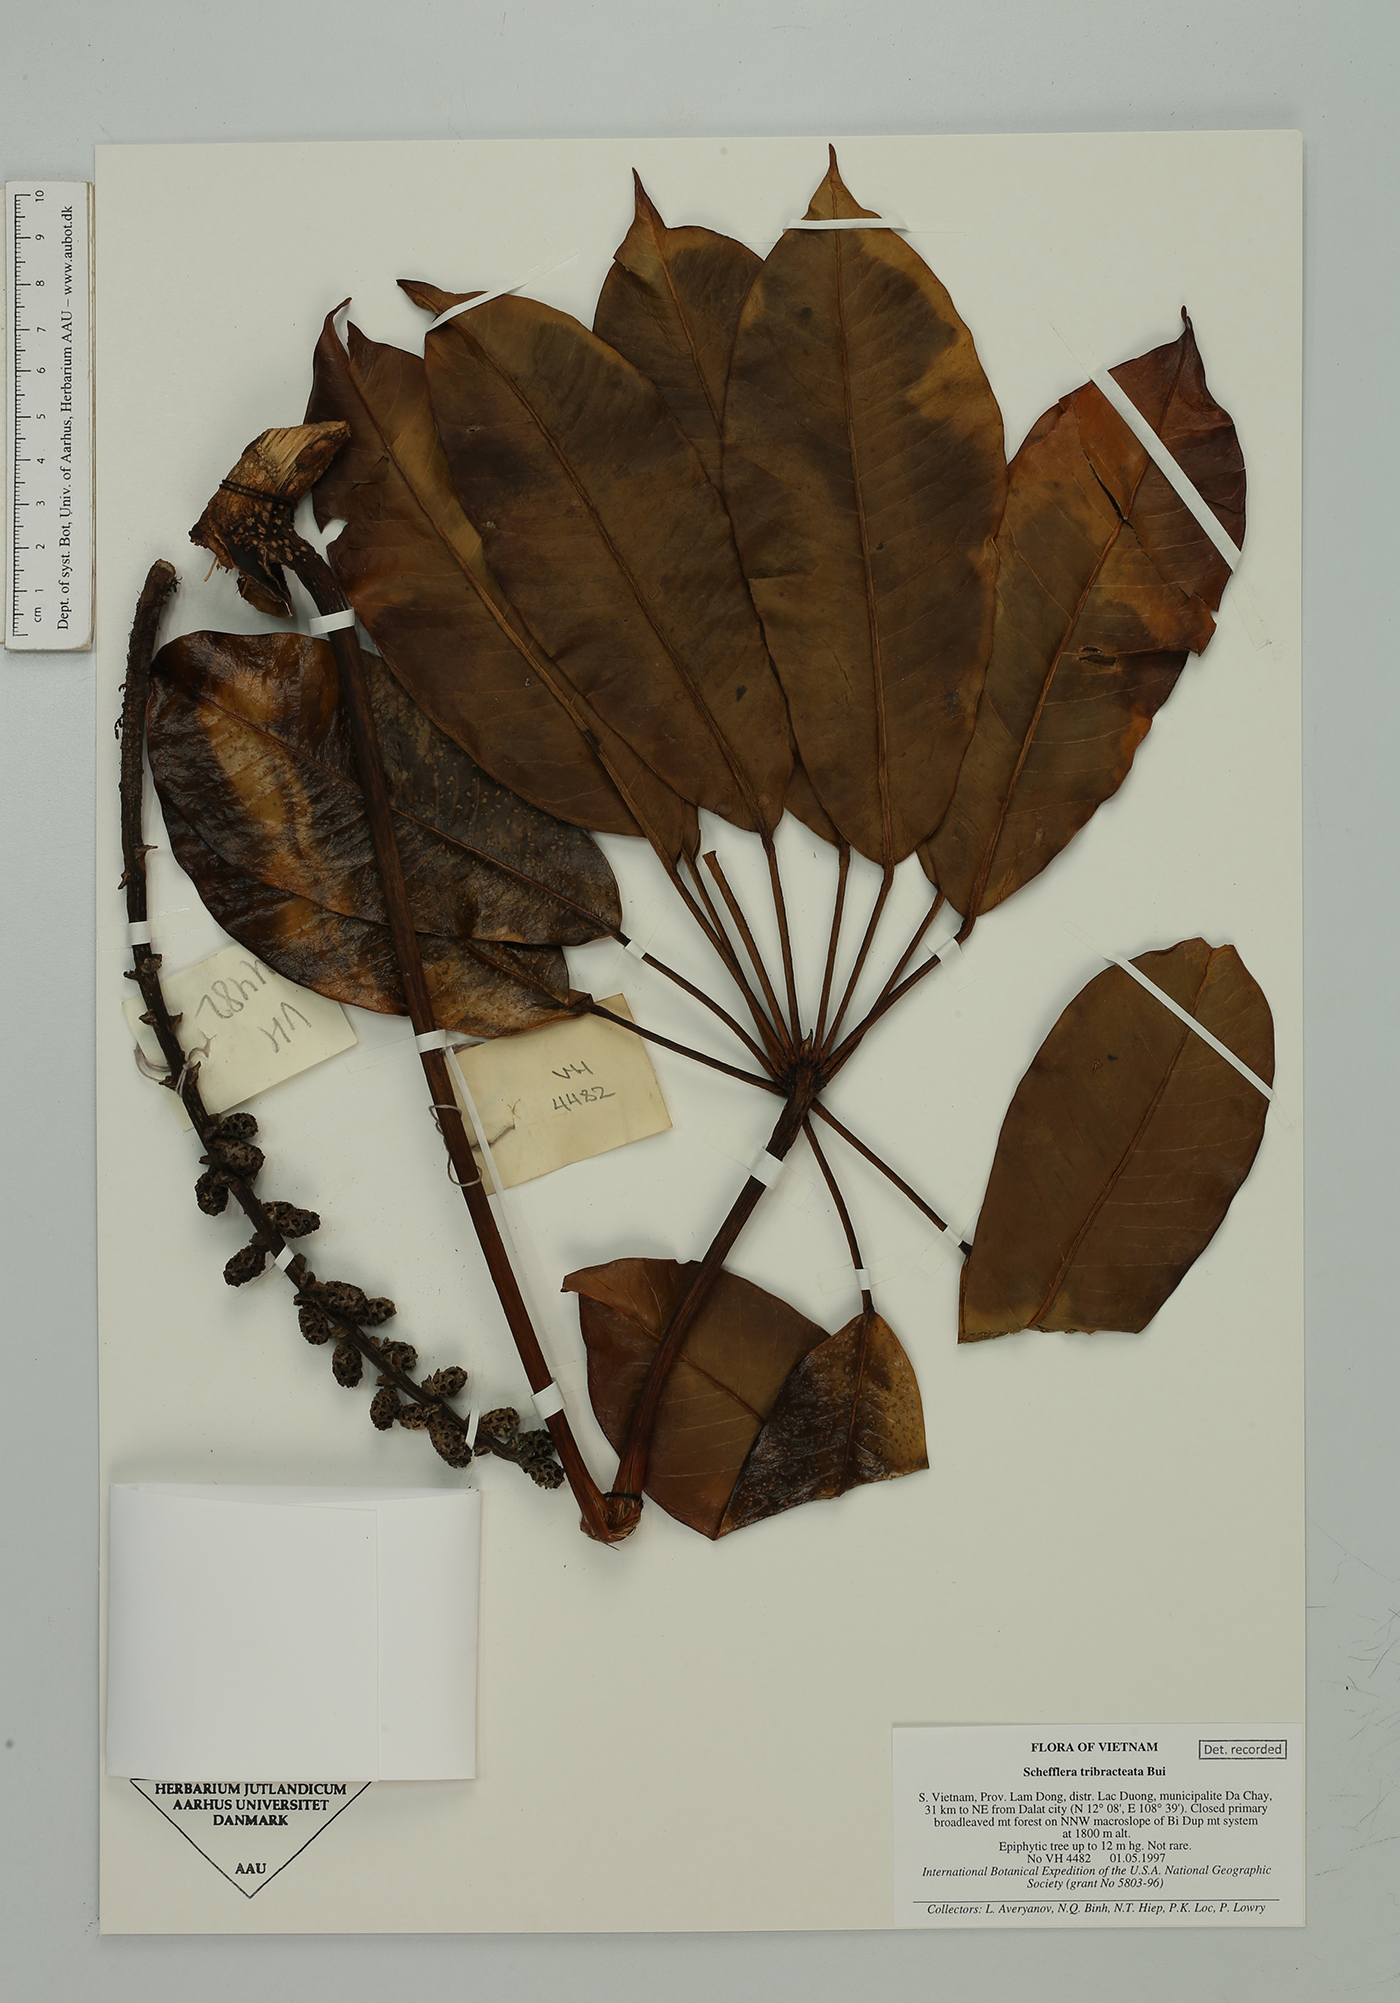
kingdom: Plantae
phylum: Tracheophyta
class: Magnoliopsida
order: Apiales
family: Araliaceae
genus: Heptapleurum
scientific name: Heptapleurum tribracteolatum
